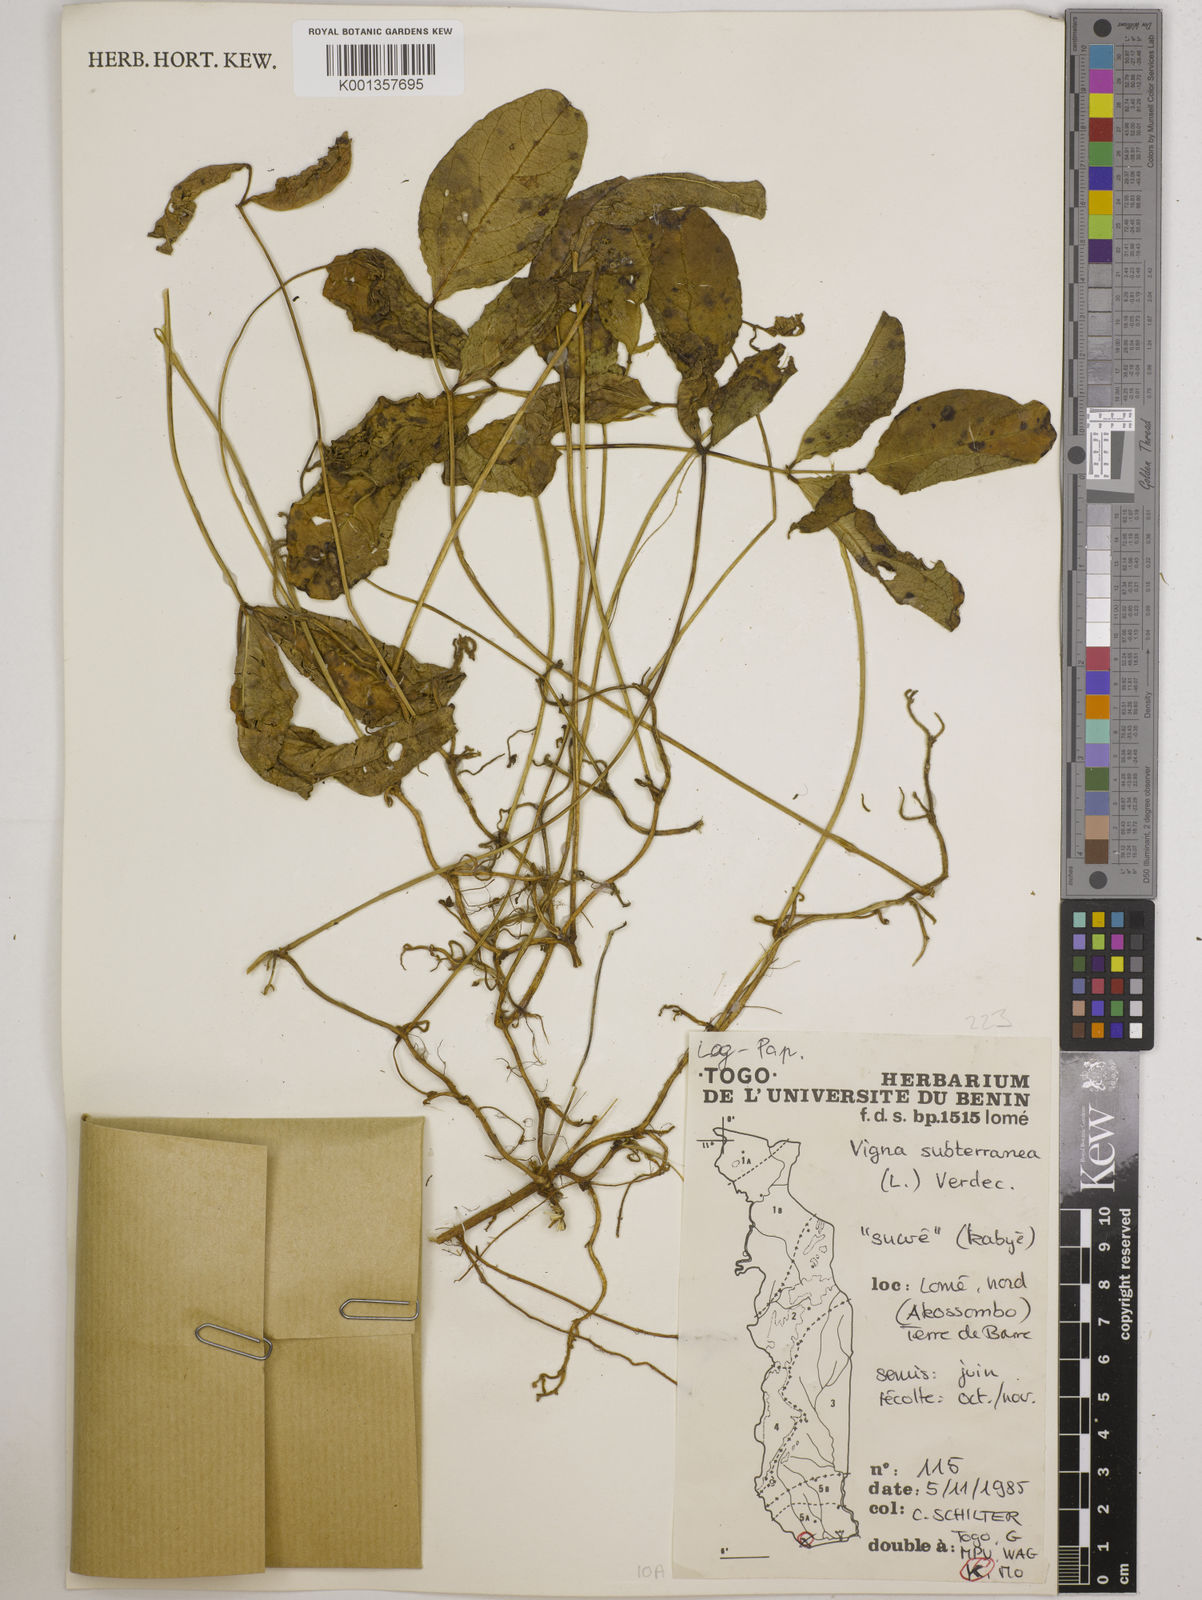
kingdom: Plantae
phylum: Tracheophyta
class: Magnoliopsida
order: Fabales
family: Fabaceae
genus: Vigna
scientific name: Vigna subterranea
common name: Bambara groundnut
